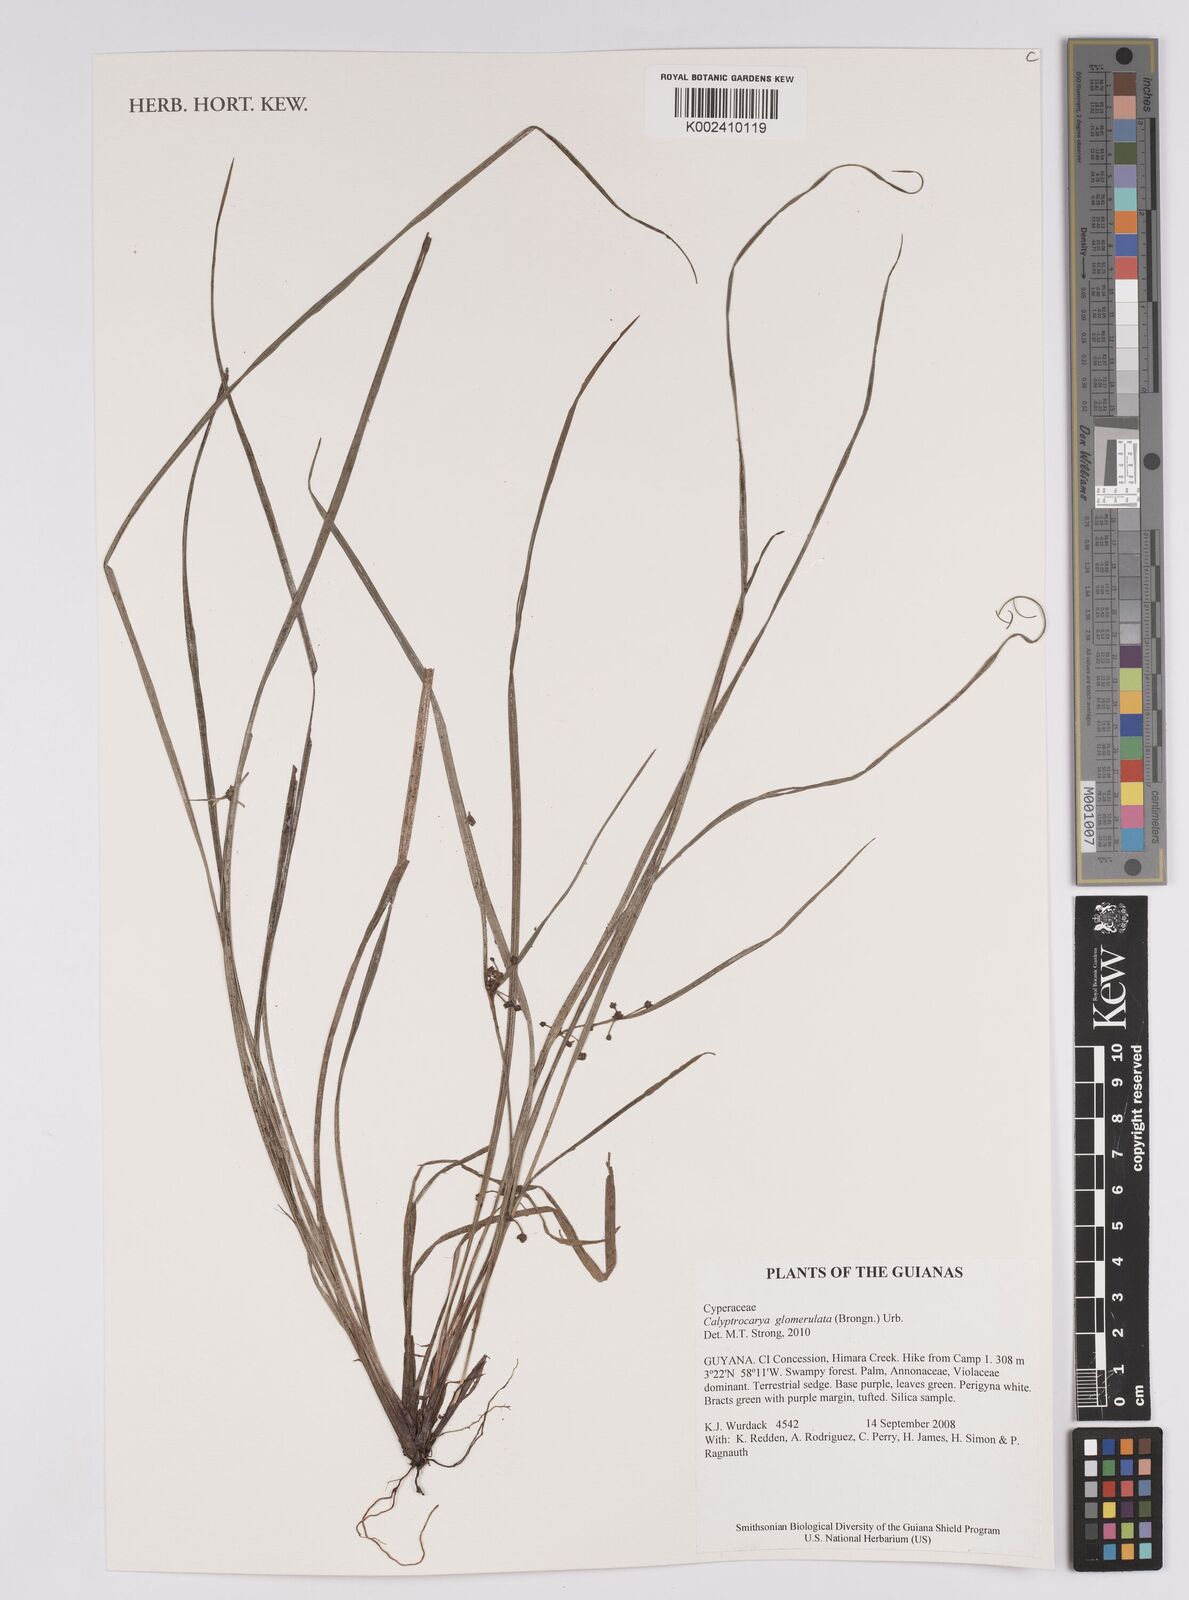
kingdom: Plantae
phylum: Tracheophyta
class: Liliopsida
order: Poales
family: Cyperaceae
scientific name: Cyperaceae
